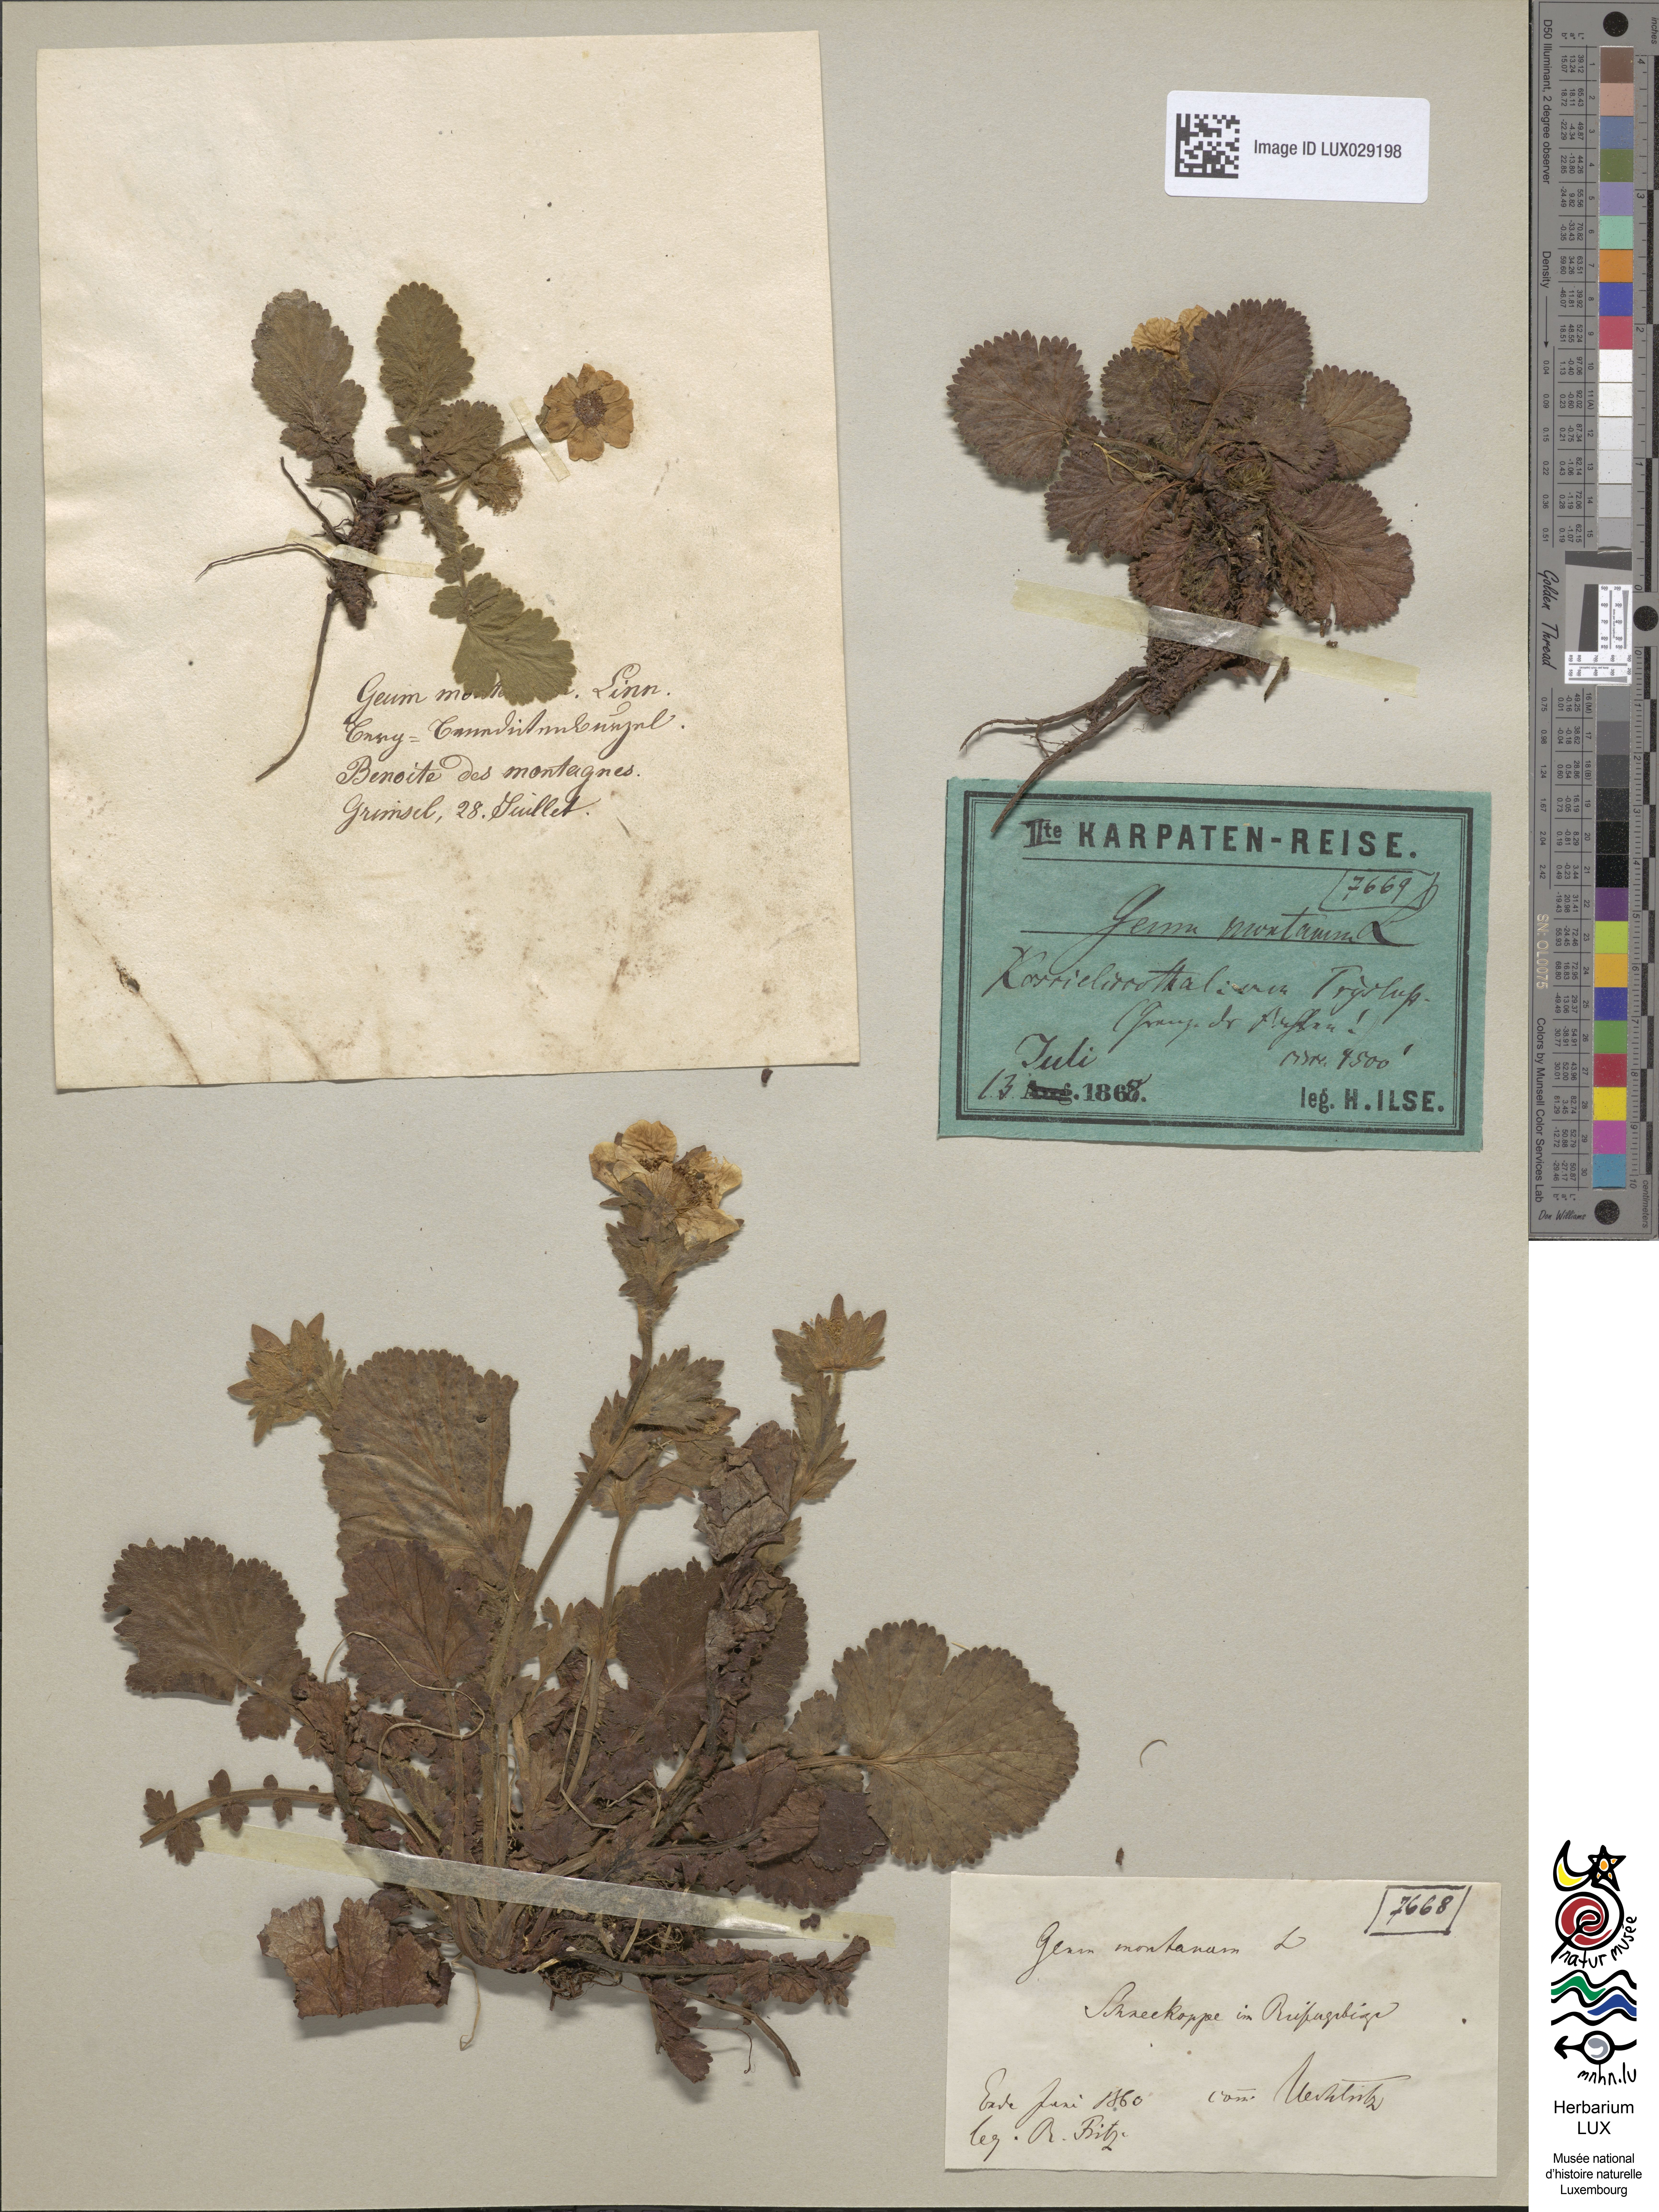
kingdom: Plantae
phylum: Tracheophyta
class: Magnoliopsida
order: Rosales
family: Rosaceae
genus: Geum
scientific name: Geum montanum
